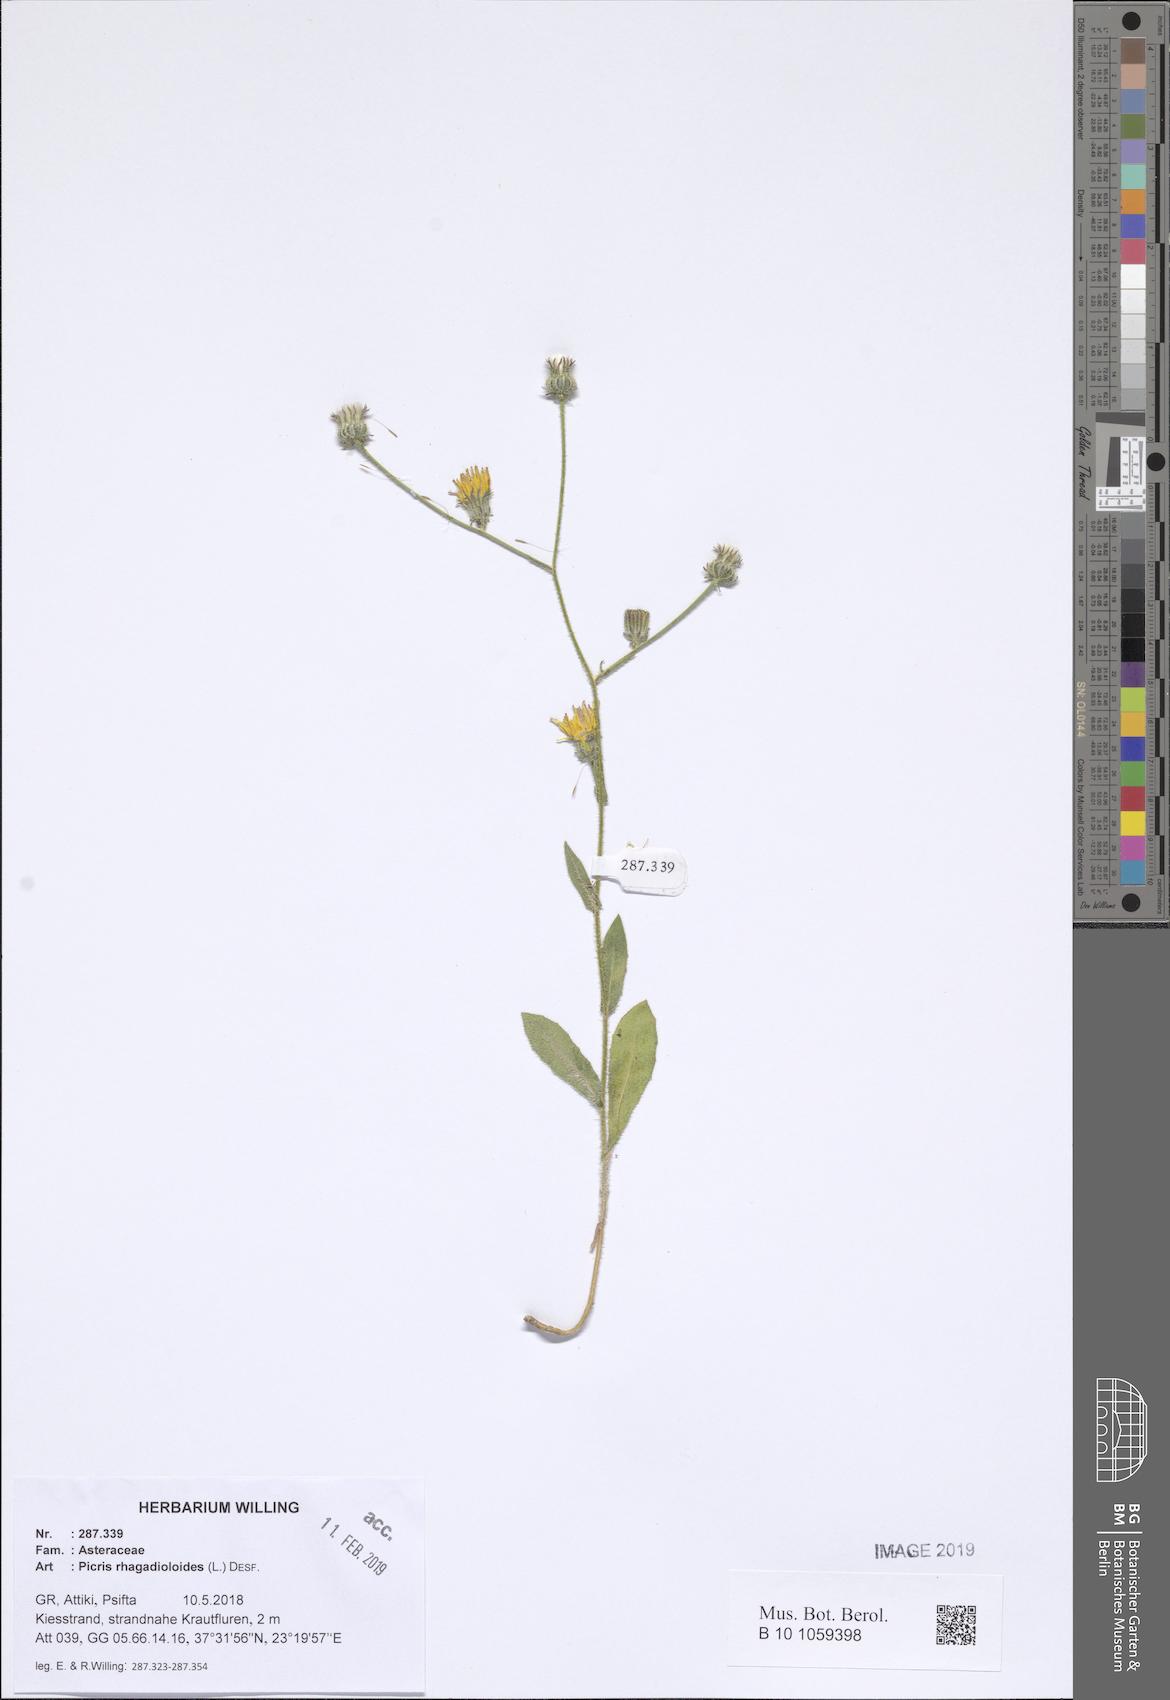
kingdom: Plantae
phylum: Tracheophyta
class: Magnoliopsida
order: Asterales
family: Asteraceae
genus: Picris
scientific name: Picris rhagadioloides
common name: Oxtongue
